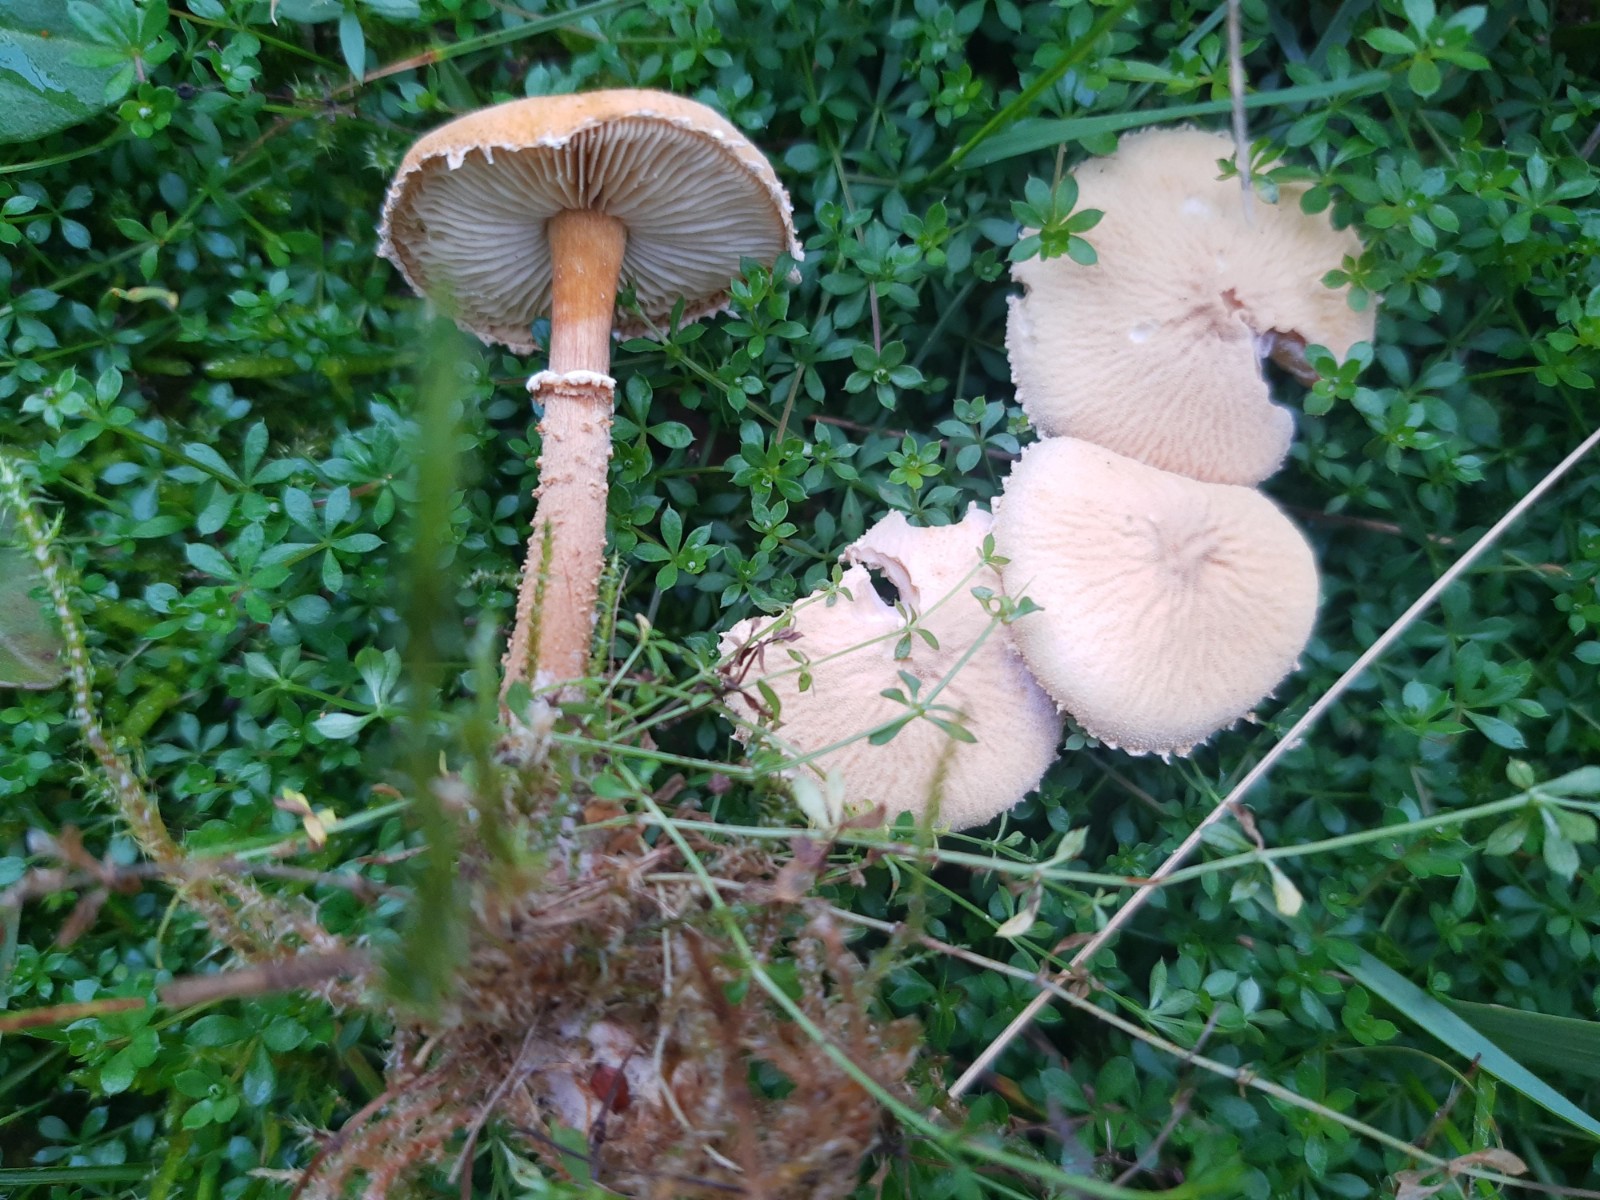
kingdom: Fungi
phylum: Basidiomycota
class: Agaricomycetes
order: Agaricales
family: Tricholomataceae
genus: Cystoderma
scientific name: Cystoderma amianthinum
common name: okkergul grynhat
